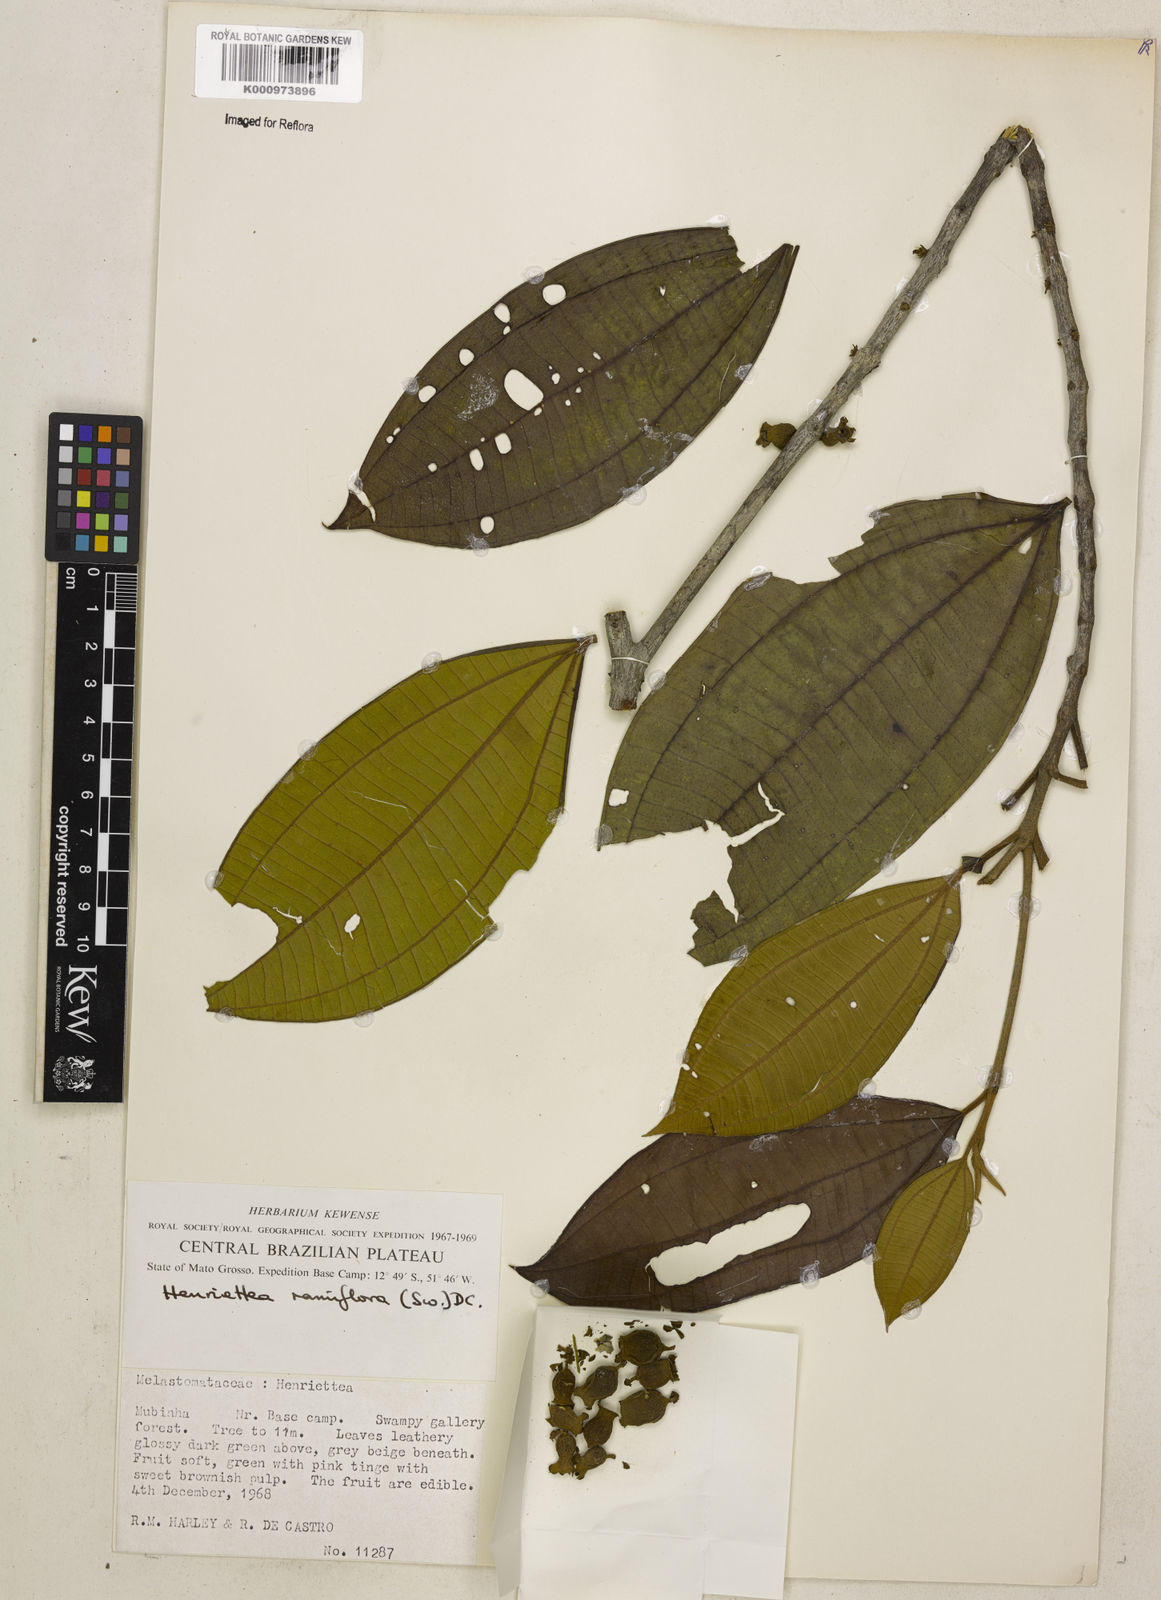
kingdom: Plantae
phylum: Tracheophyta
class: Magnoliopsida
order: Myrtales
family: Melastomataceae
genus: Henriettea
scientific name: Henriettea ramiflora
